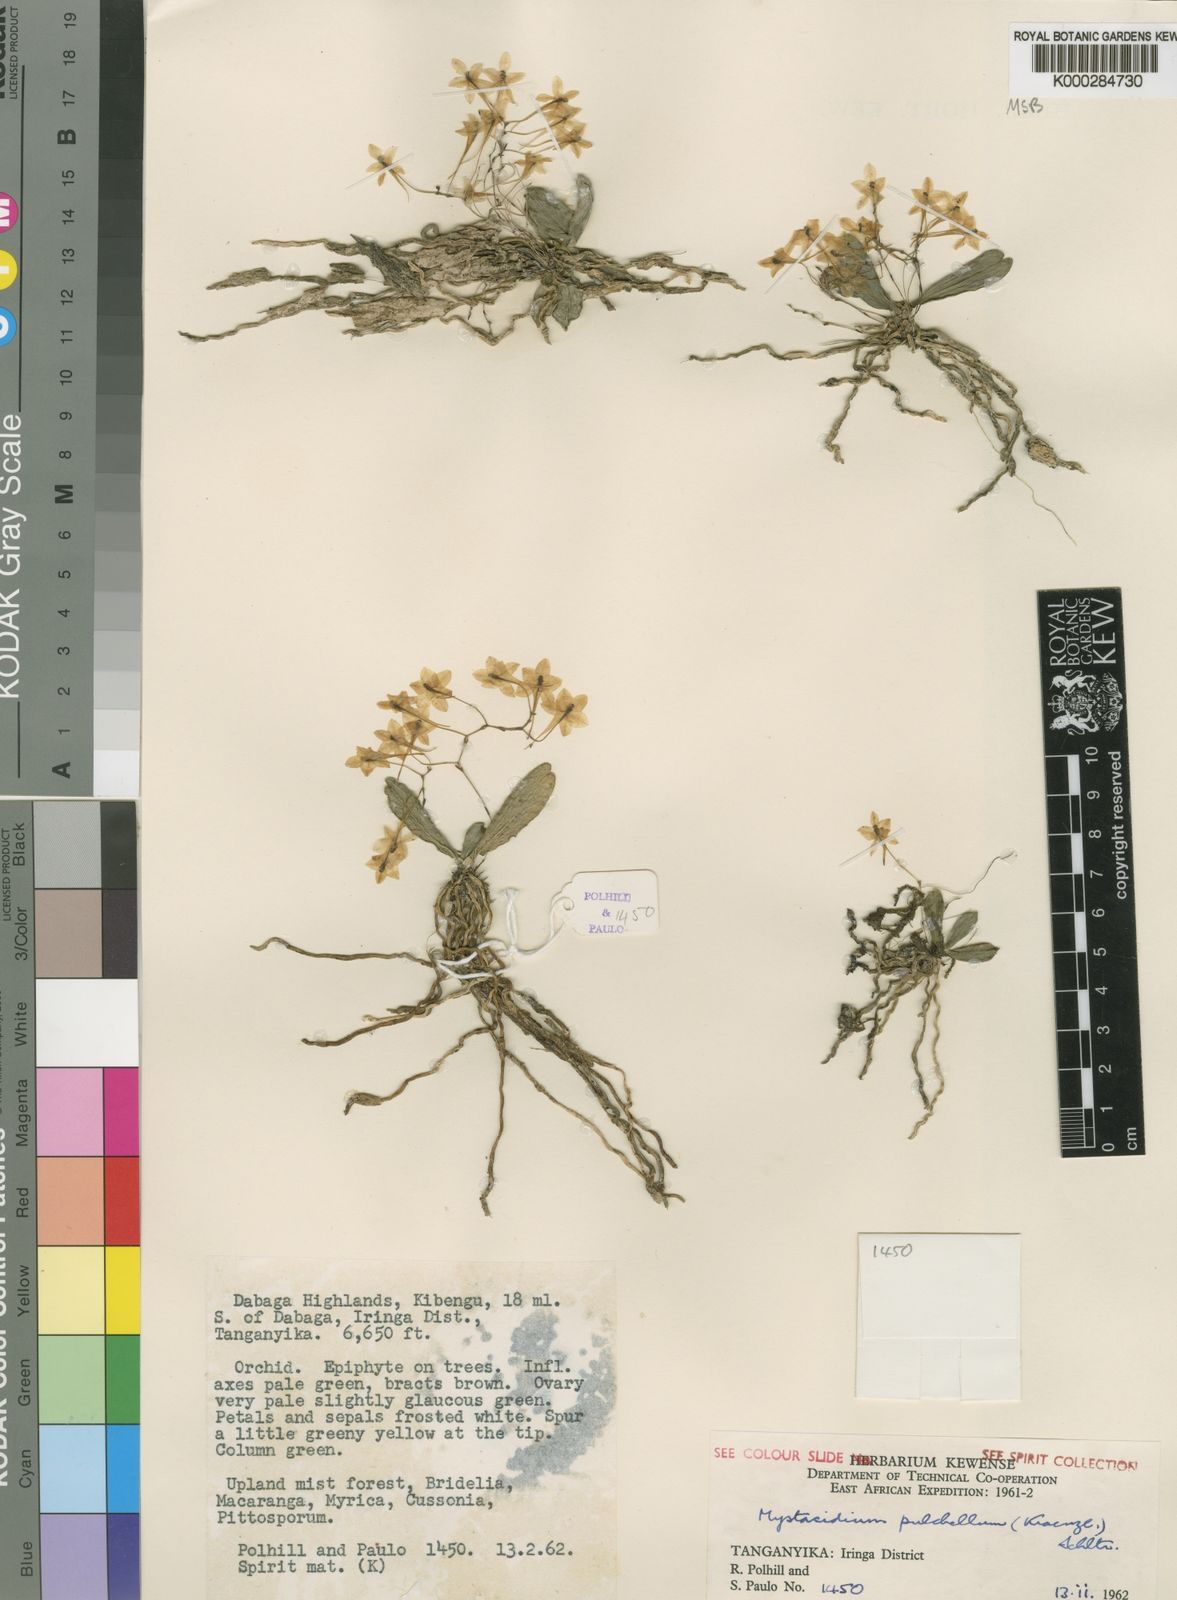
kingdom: Plantae
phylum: Tracheophyta
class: Liliopsida
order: Asparagales
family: Orchidaceae
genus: Mystacidium
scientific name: Mystacidium pulchellum
